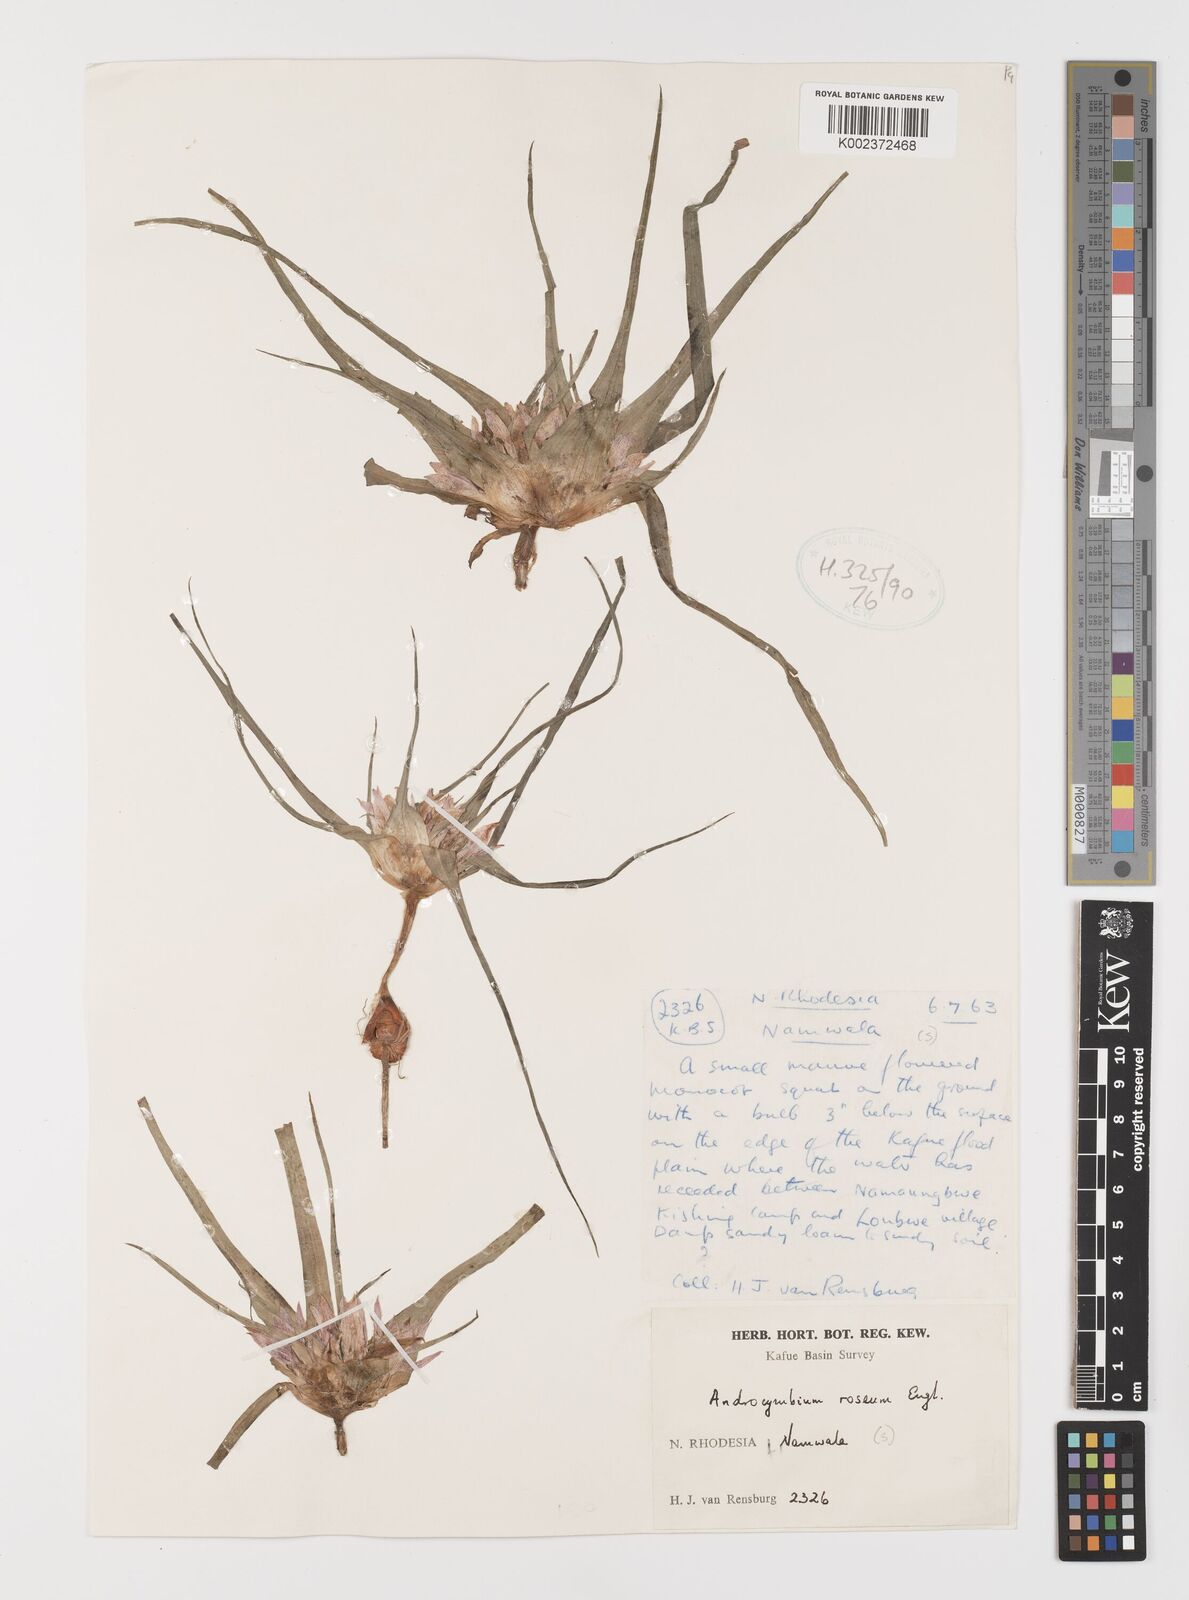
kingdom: Plantae
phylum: Tracheophyta
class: Liliopsida
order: Liliales
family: Colchicaceae
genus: Colchicum
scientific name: Colchicum roseum
